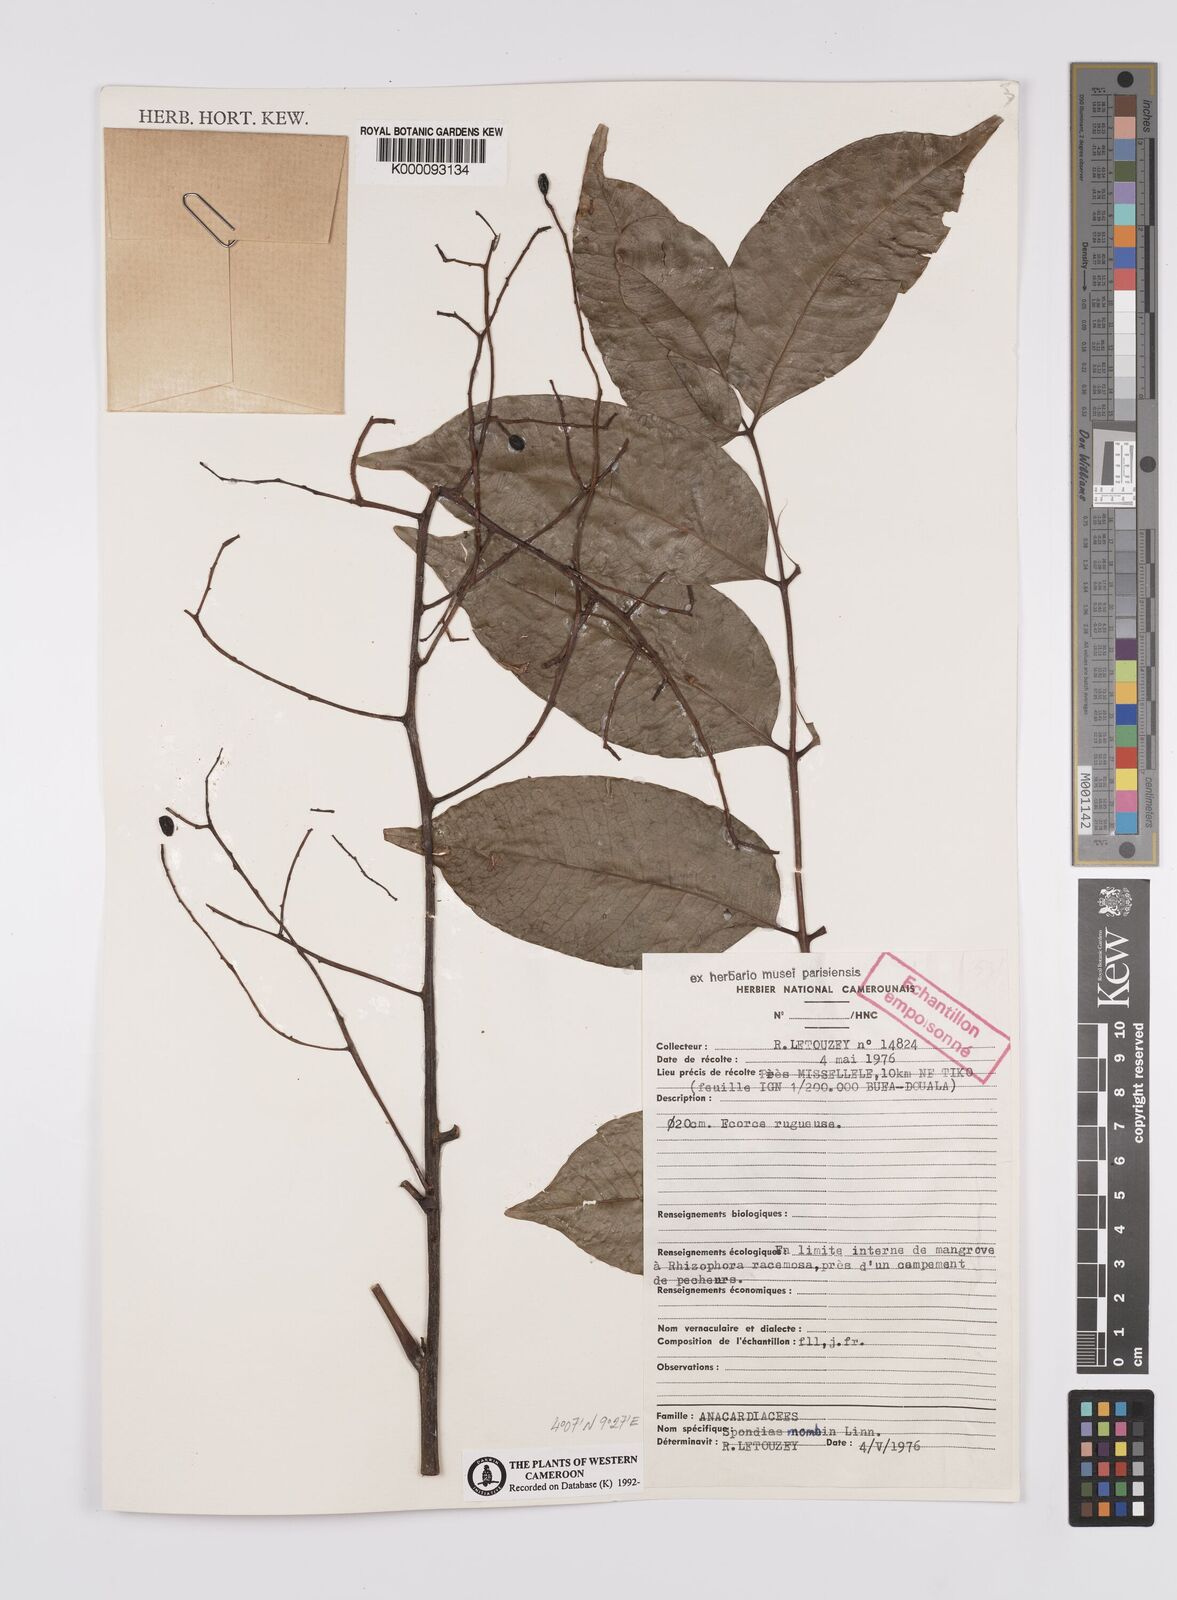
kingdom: Plantae
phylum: Tracheophyta
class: Magnoliopsida
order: Sapindales
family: Anacardiaceae
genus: Spondias
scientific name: Spondias mombin
